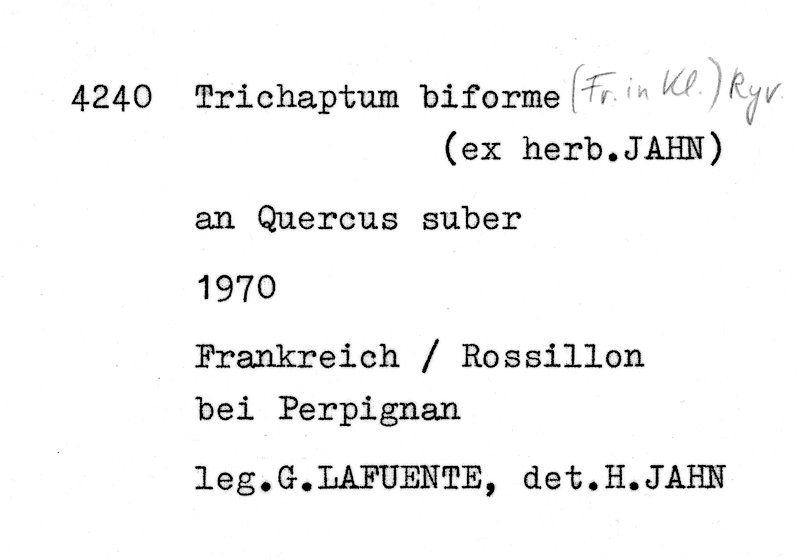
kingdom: Plantae
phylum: Tracheophyta
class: Magnoliopsida
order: Fagales
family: Fagaceae
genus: Quercus
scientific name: Quercus suber
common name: Cork oak
